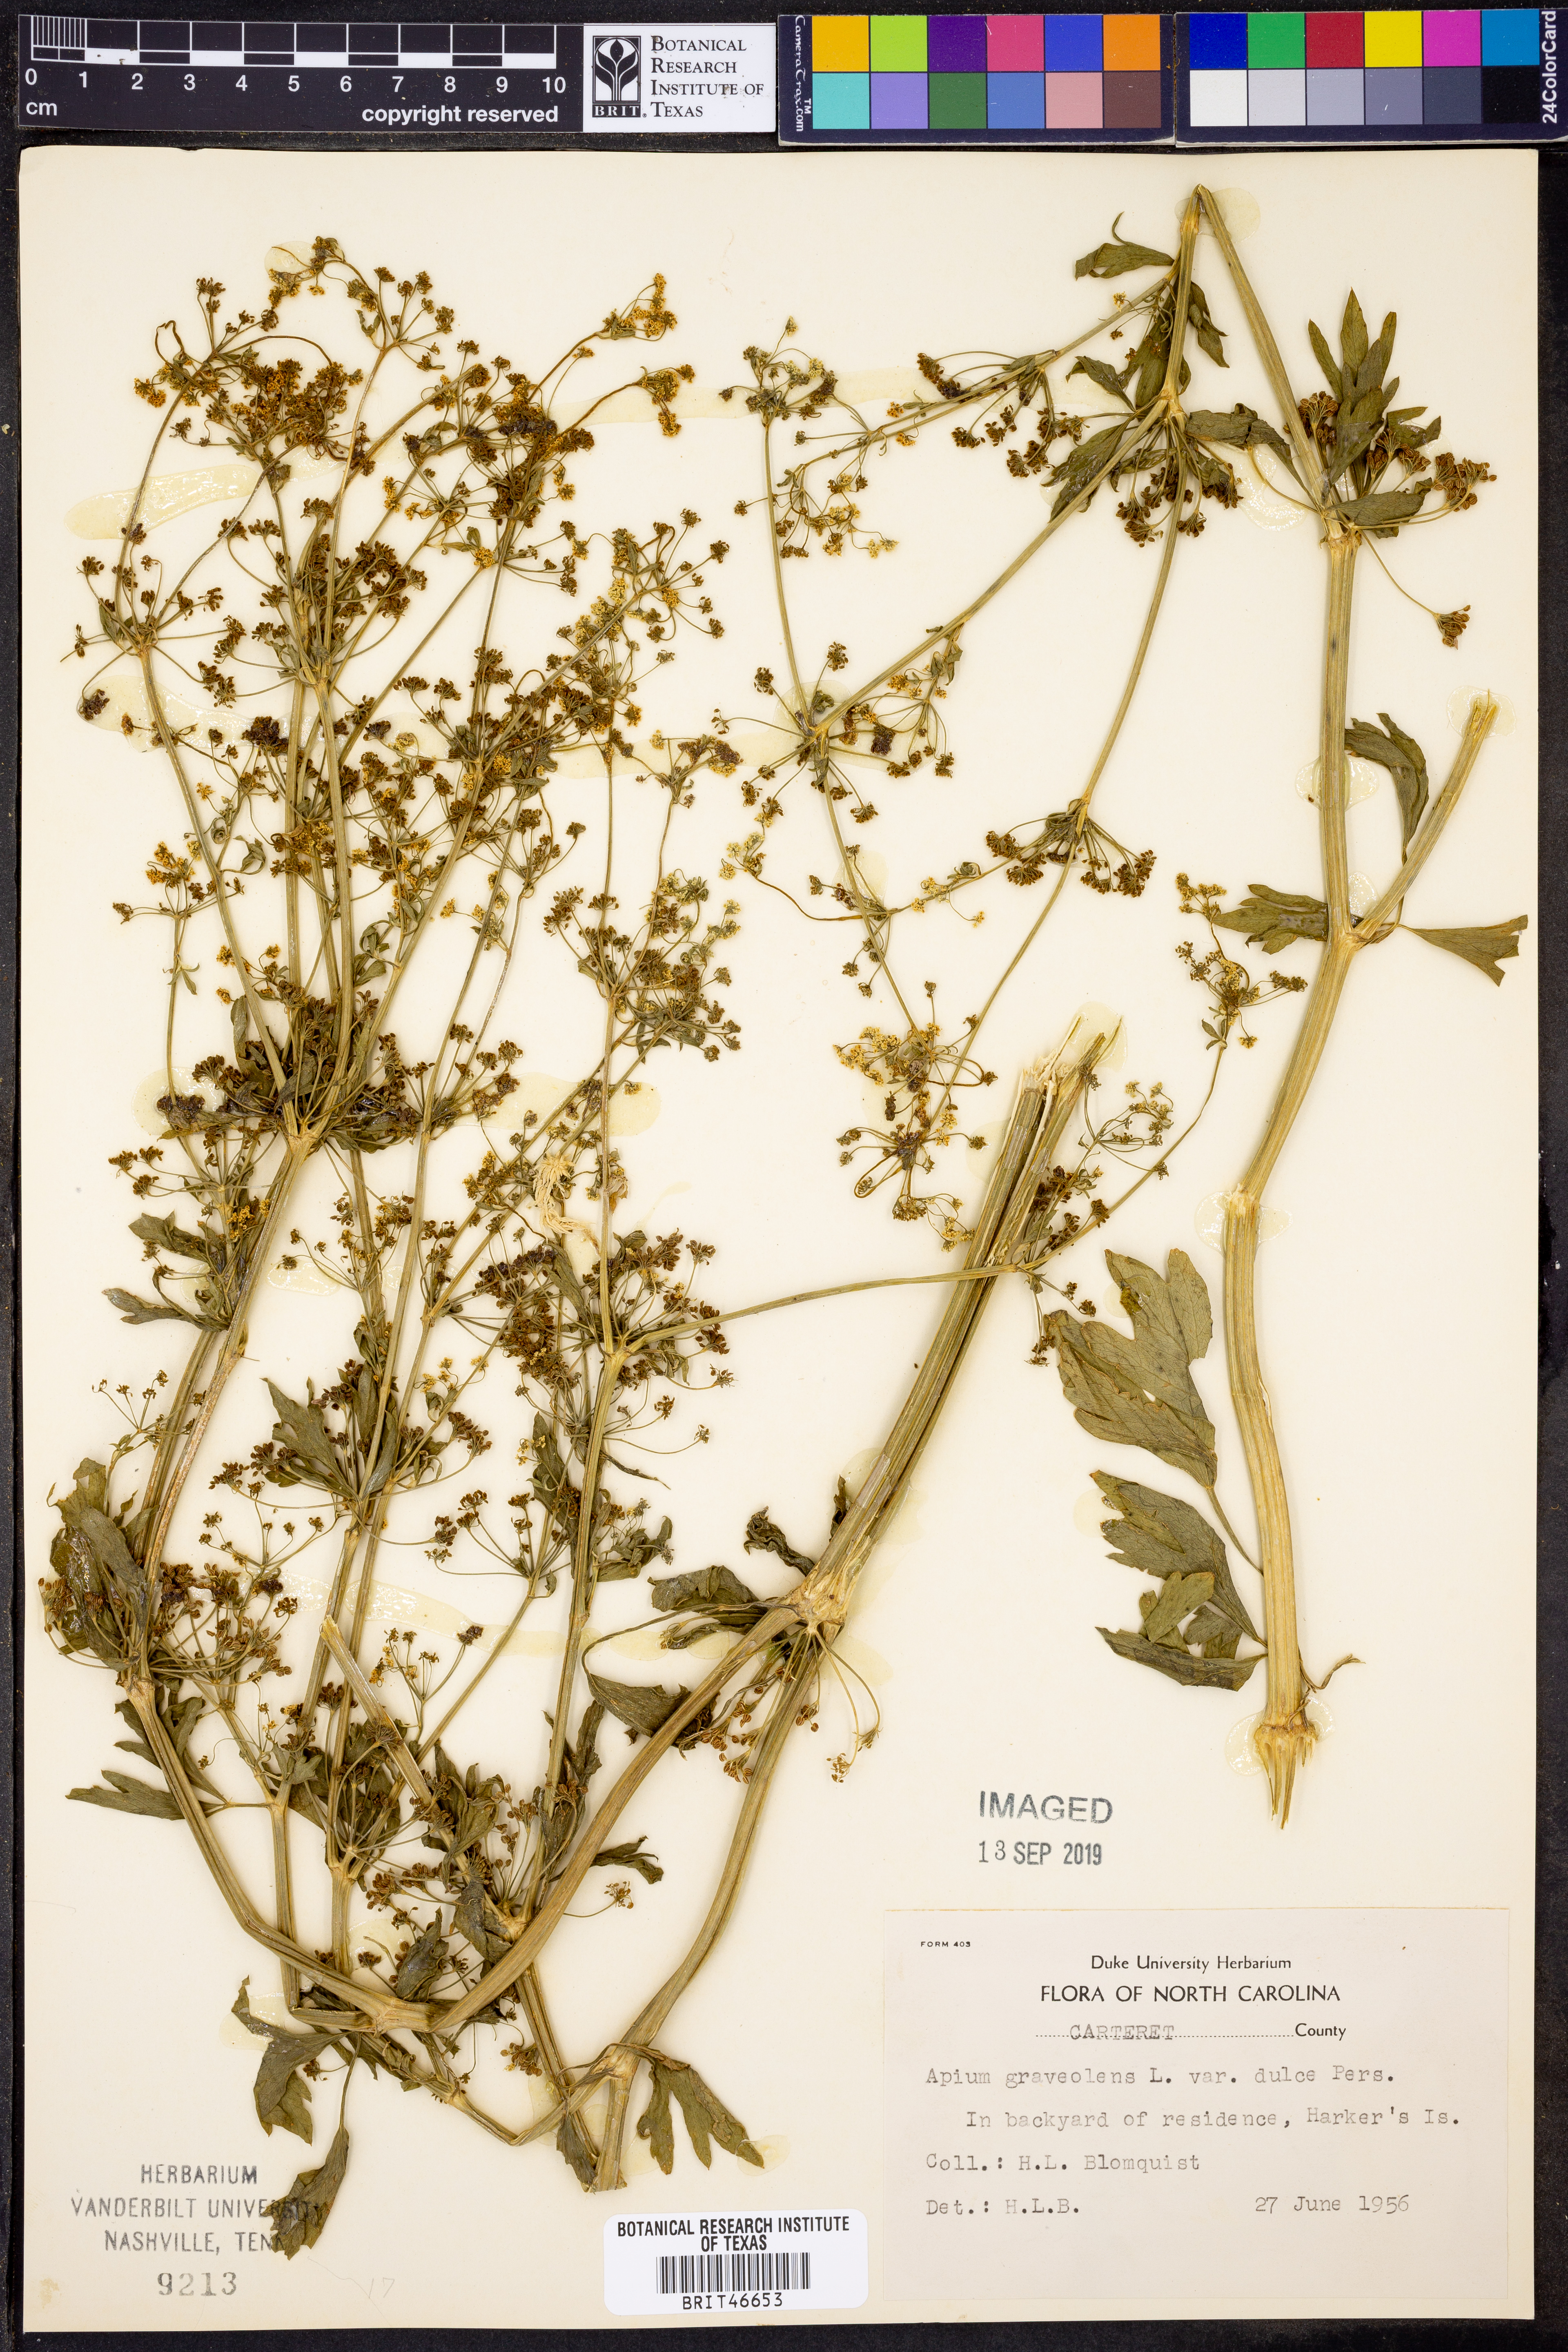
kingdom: Plantae
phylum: Tracheophyta
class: Magnoliopsida
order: Apiales
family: Apiaceae
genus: Apium
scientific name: Apium graveolens
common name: Wild celery
